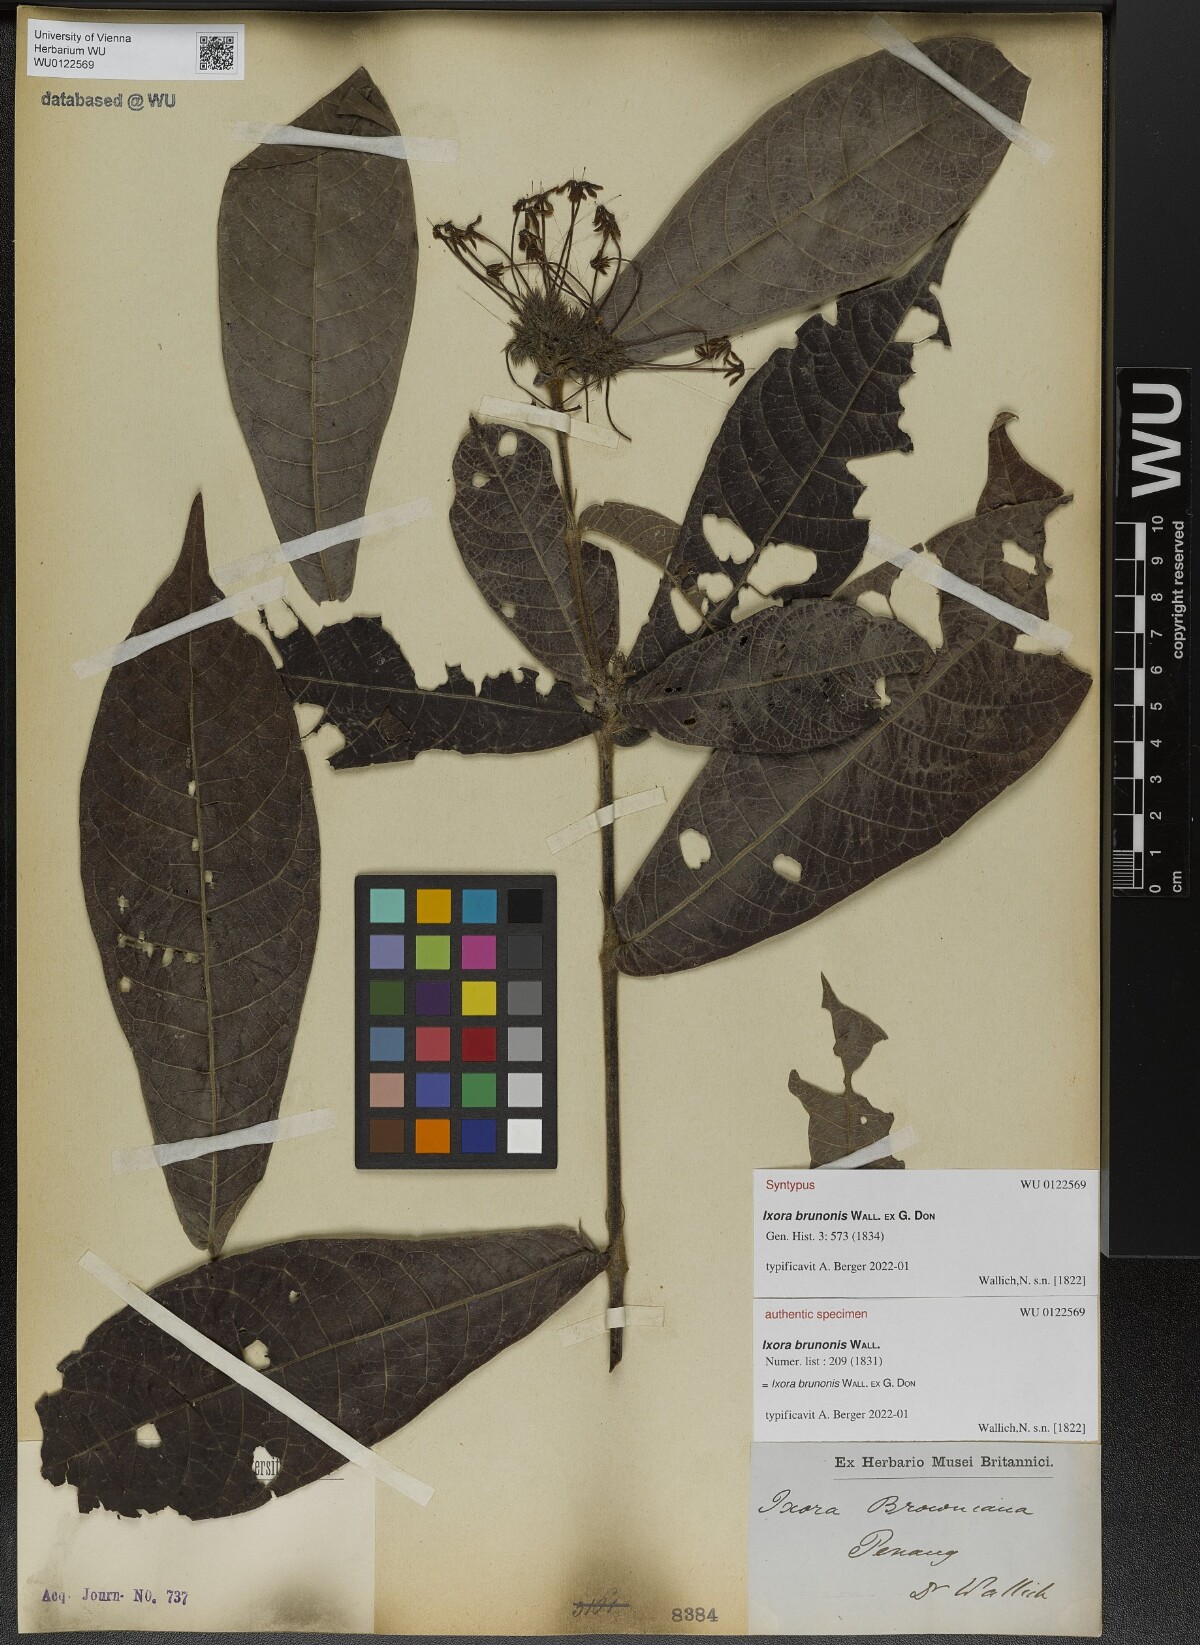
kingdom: Plantae
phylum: Tracheophyta
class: Magnoliopsida
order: Gentianales
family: Rubiaceae
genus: Ixora
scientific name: Ixora brunonis
